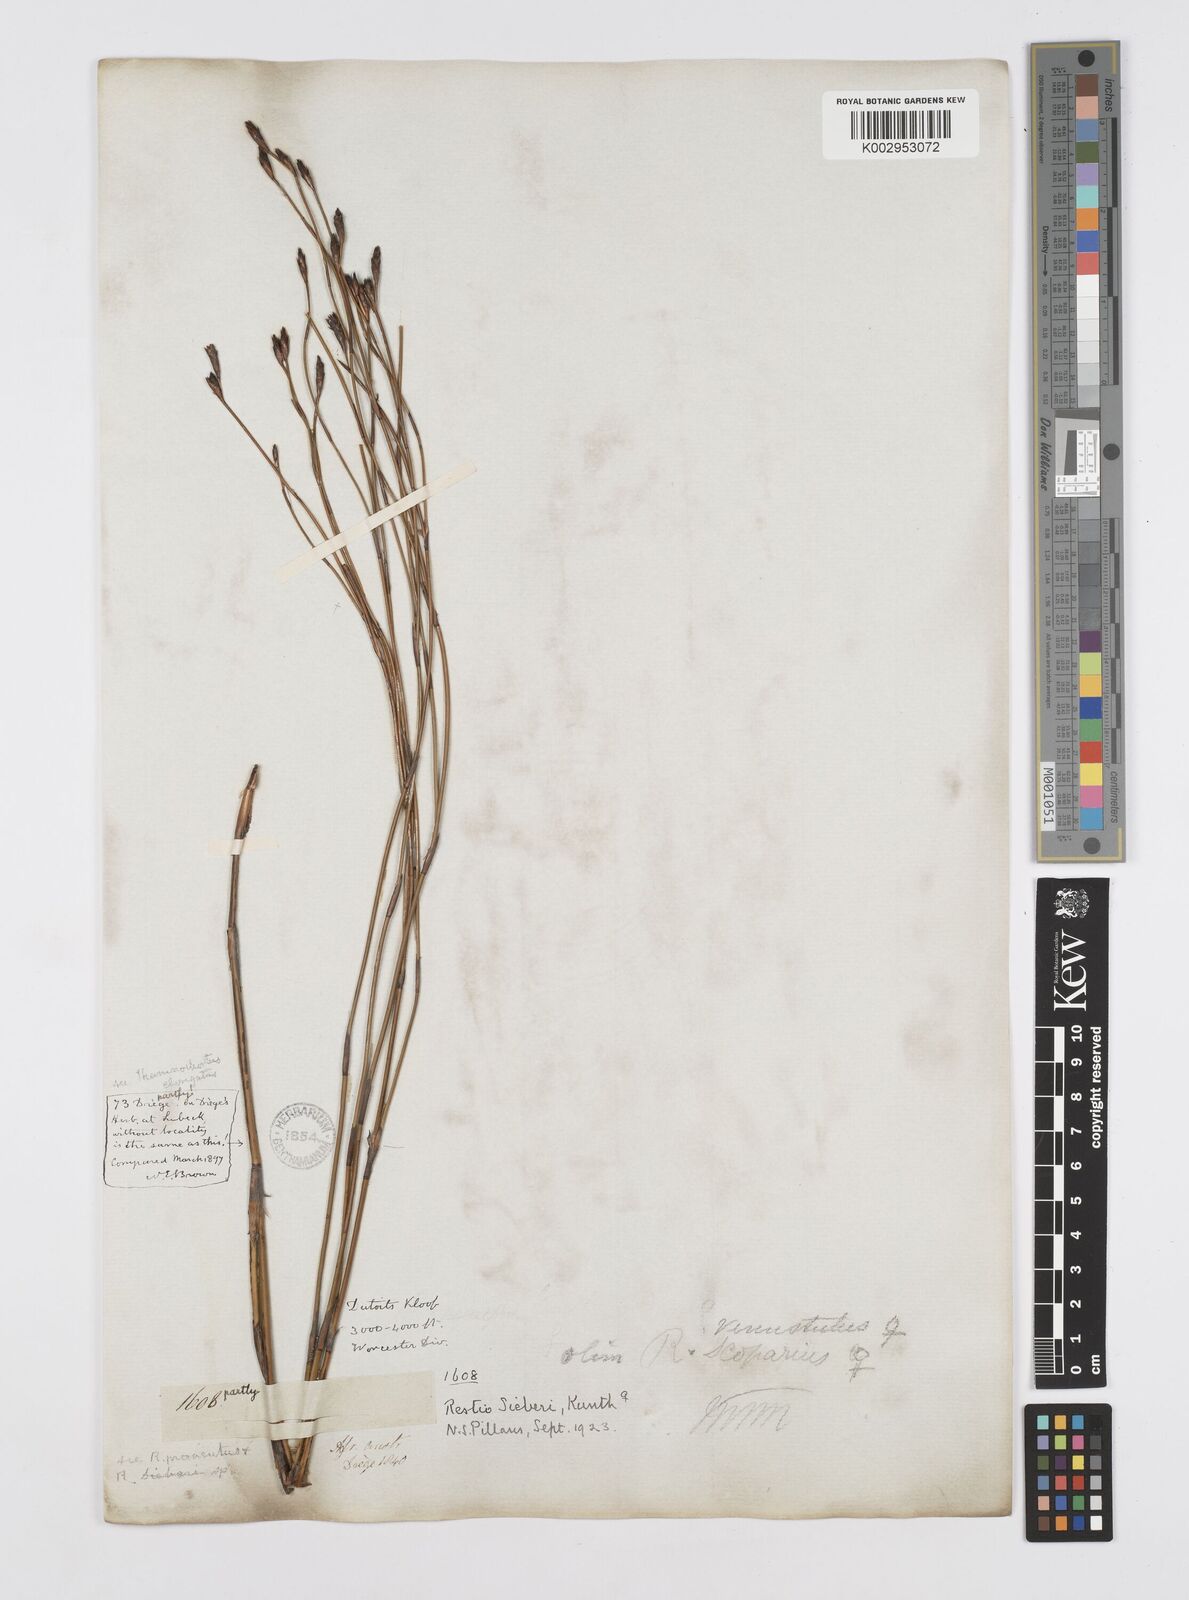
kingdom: Plantae
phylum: Tracheophyta
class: Liliopsida
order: Poales
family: Restionaceae
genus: Restio
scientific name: Restio sieberi
